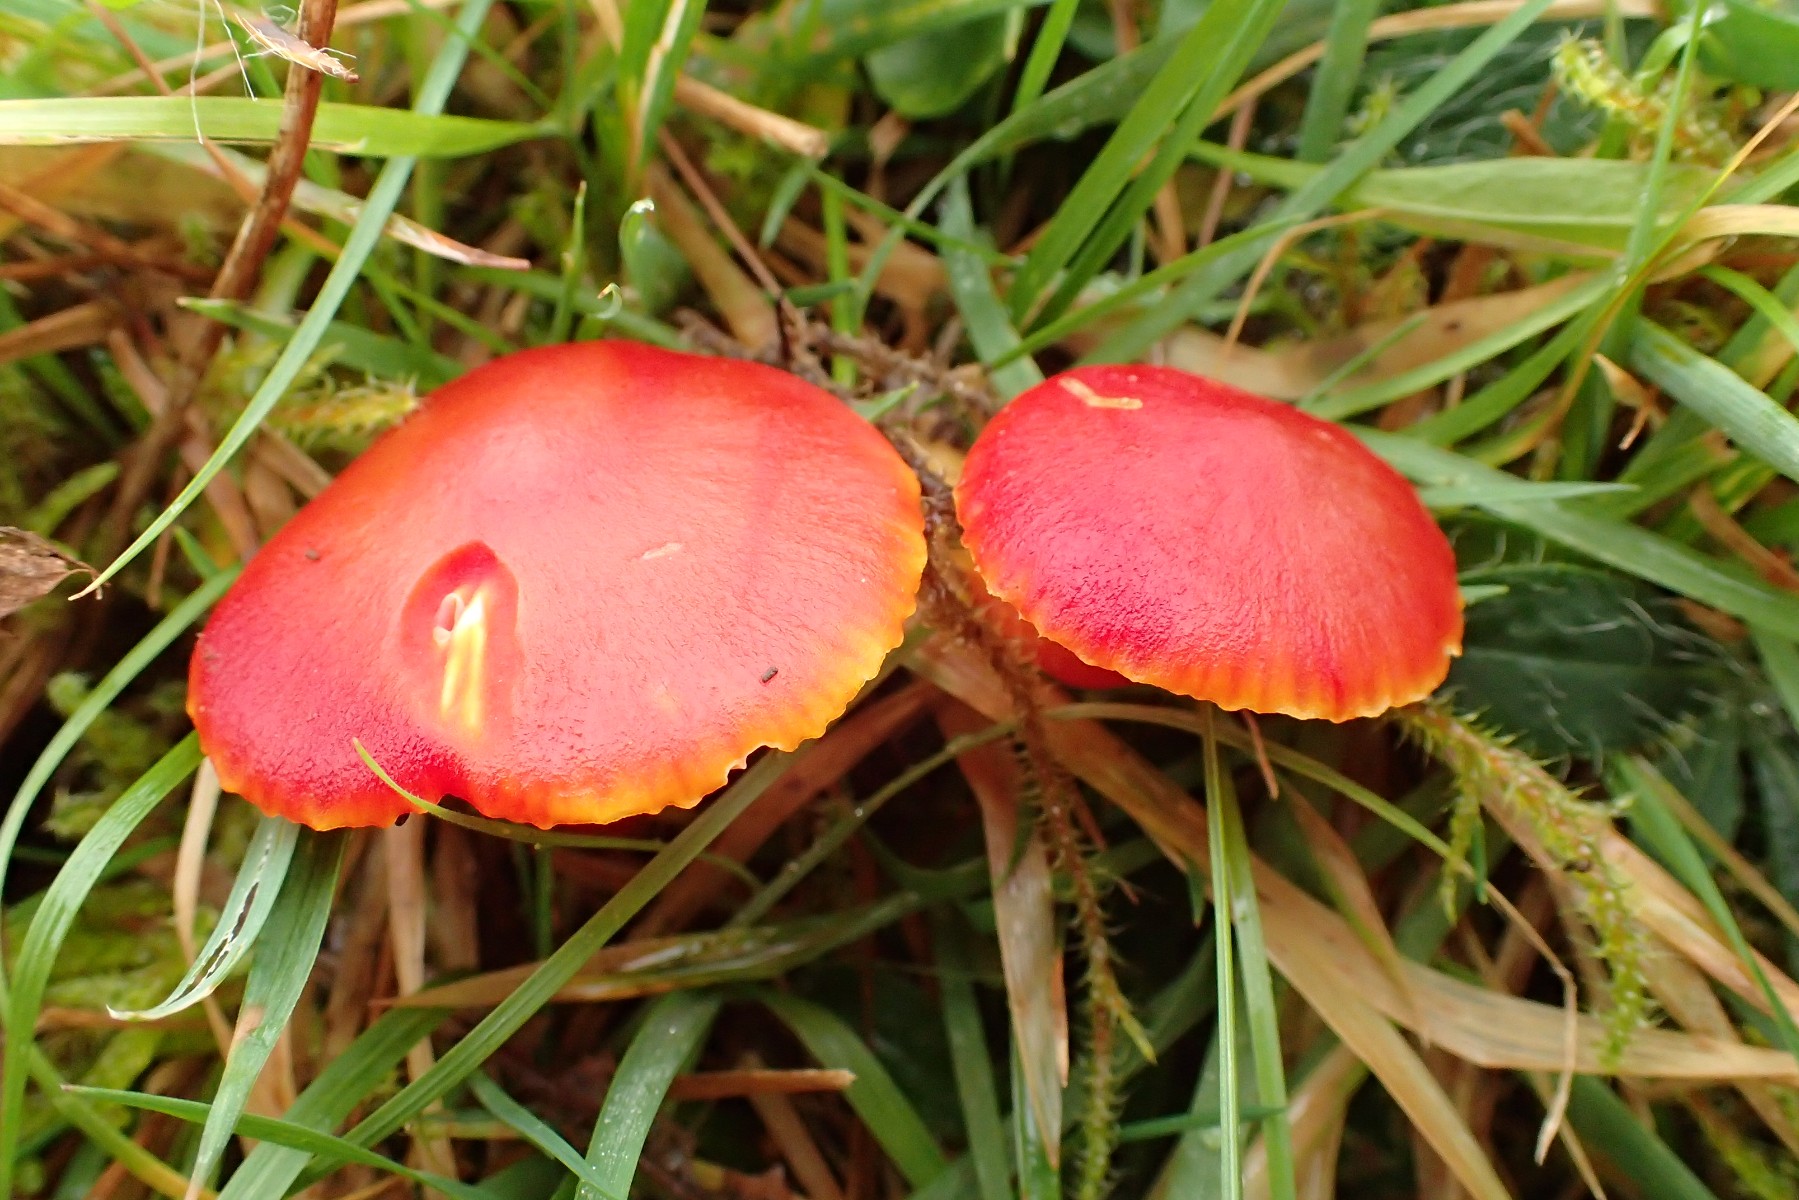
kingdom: Fungi
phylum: Basidiomycota
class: Agaricomycetes
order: Agaricales
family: Hygrophoraceae
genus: Hygrocybe
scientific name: Hygrocybe coccinea
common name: cinnober-vokshat
